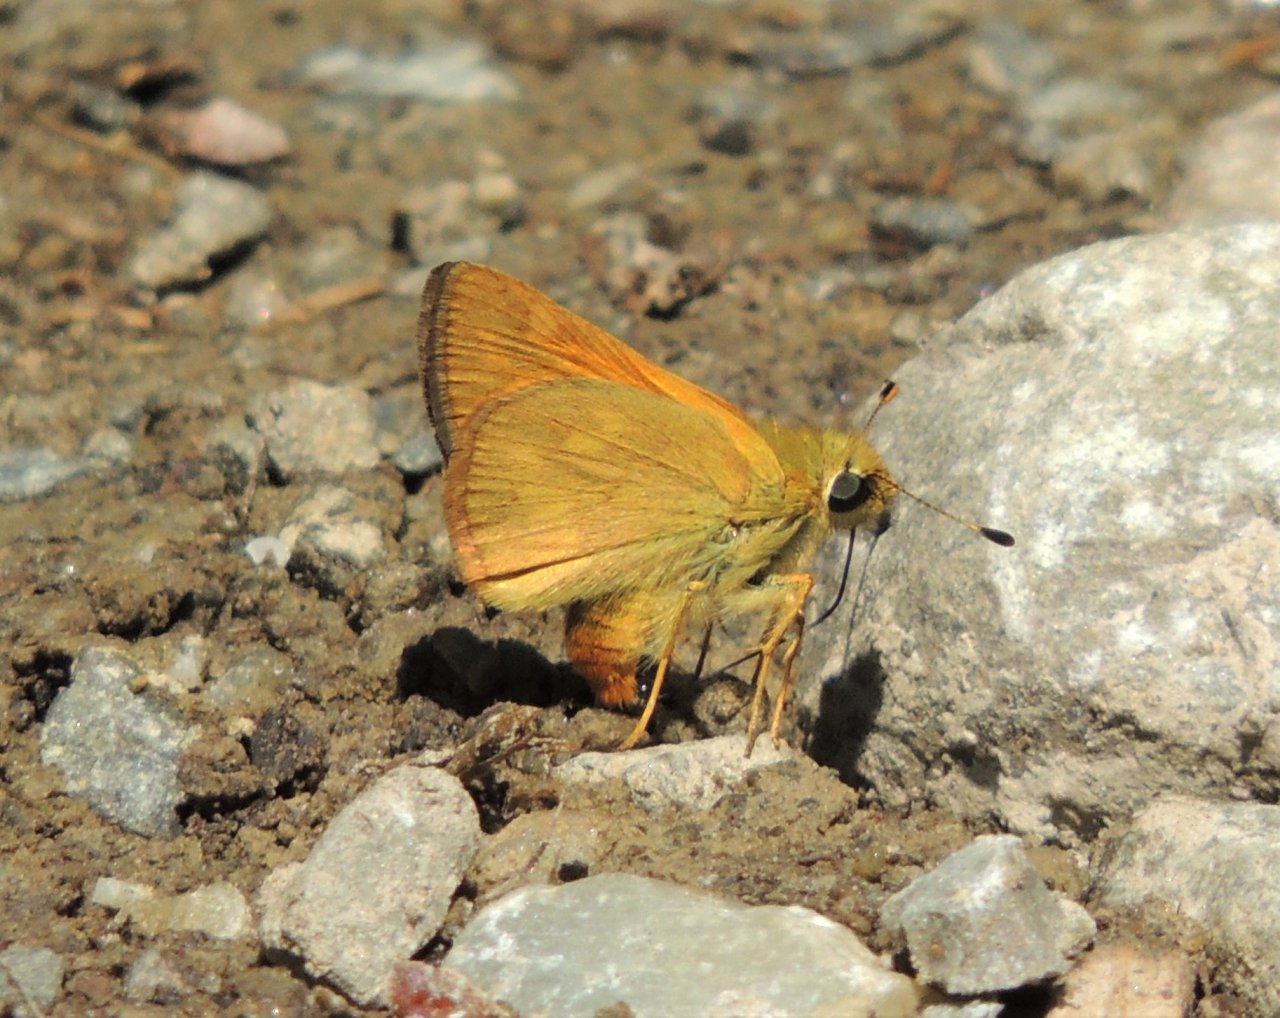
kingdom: Animalia
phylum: Arthropoda
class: Insecta
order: Lepidoptera
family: Hesperiidae
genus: Ochlodes
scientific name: Ochlodes sylvanoides
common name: Woodland Skipper
